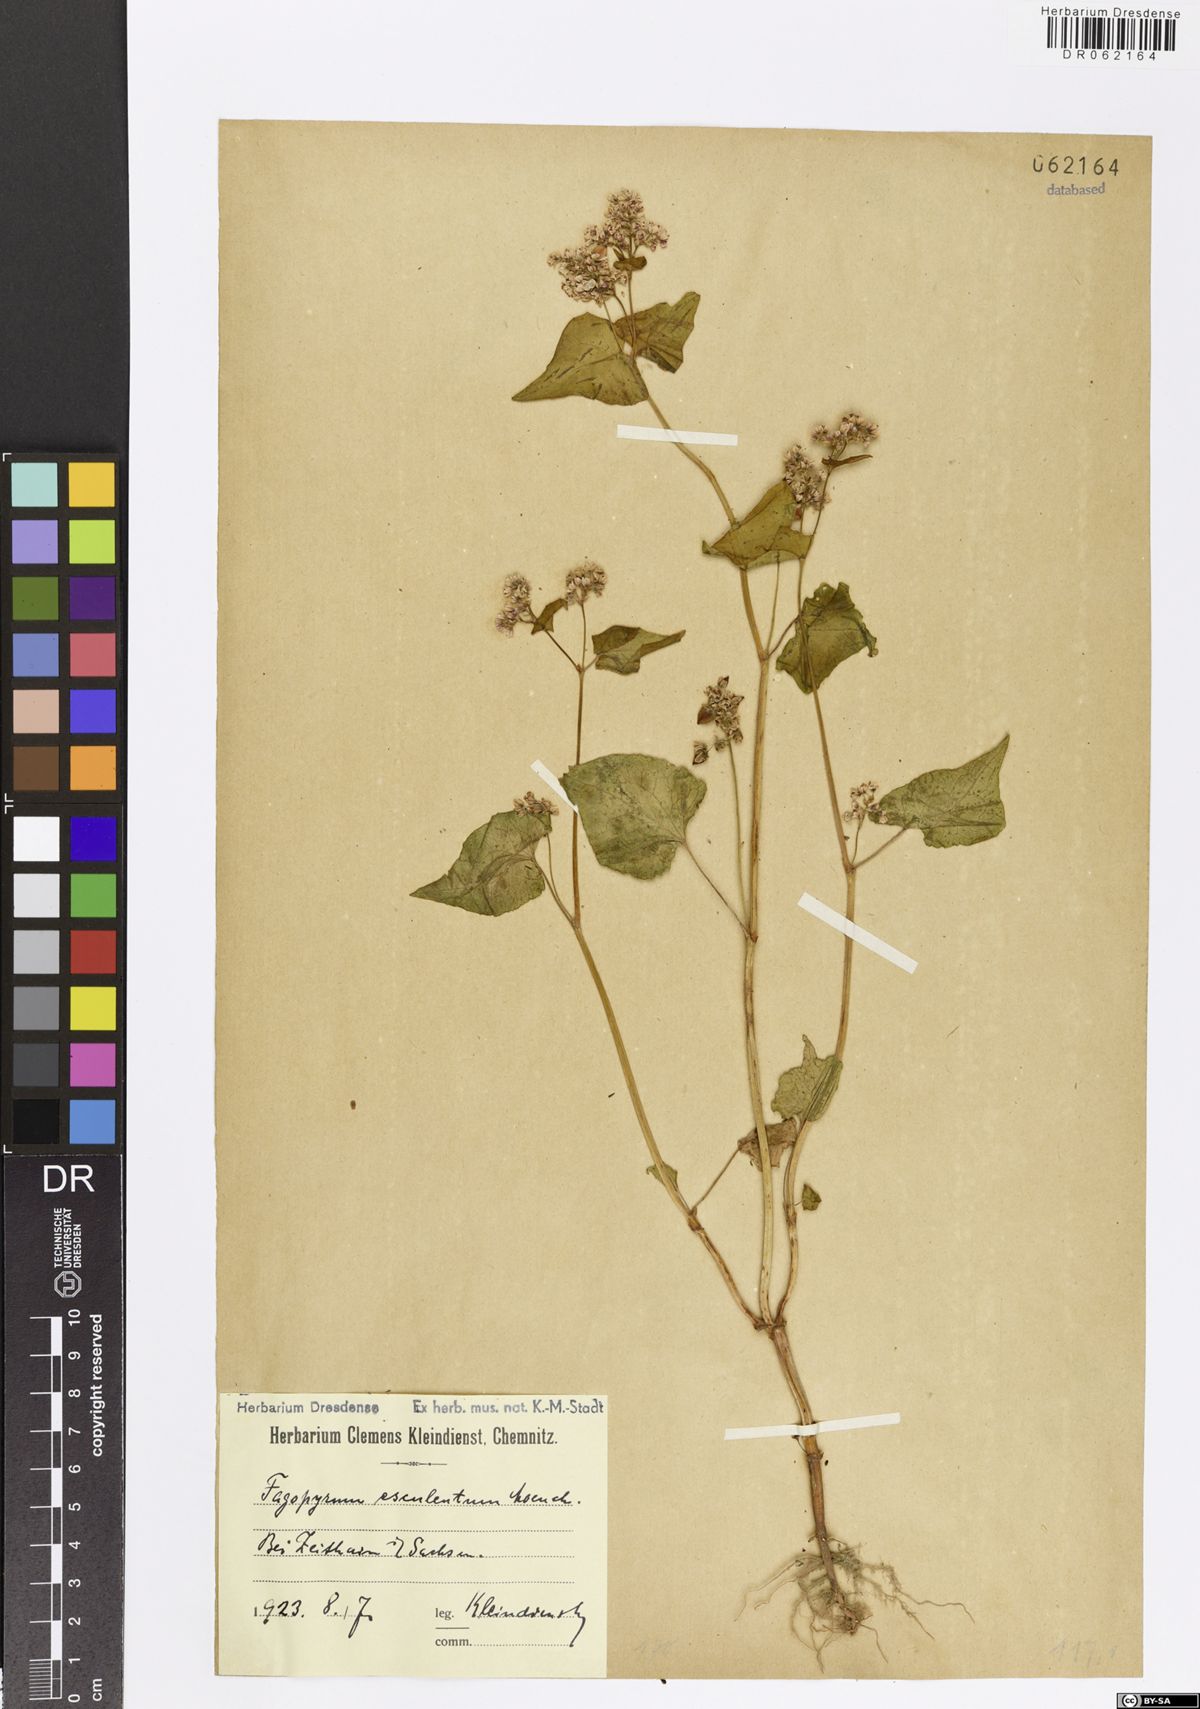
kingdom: Plantae
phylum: Tracheophyta
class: Magnoliopsida
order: Caryophyllales
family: Polygonaceae
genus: Fagopyrum
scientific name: Fagopyrum esculentum
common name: Buckwheat
